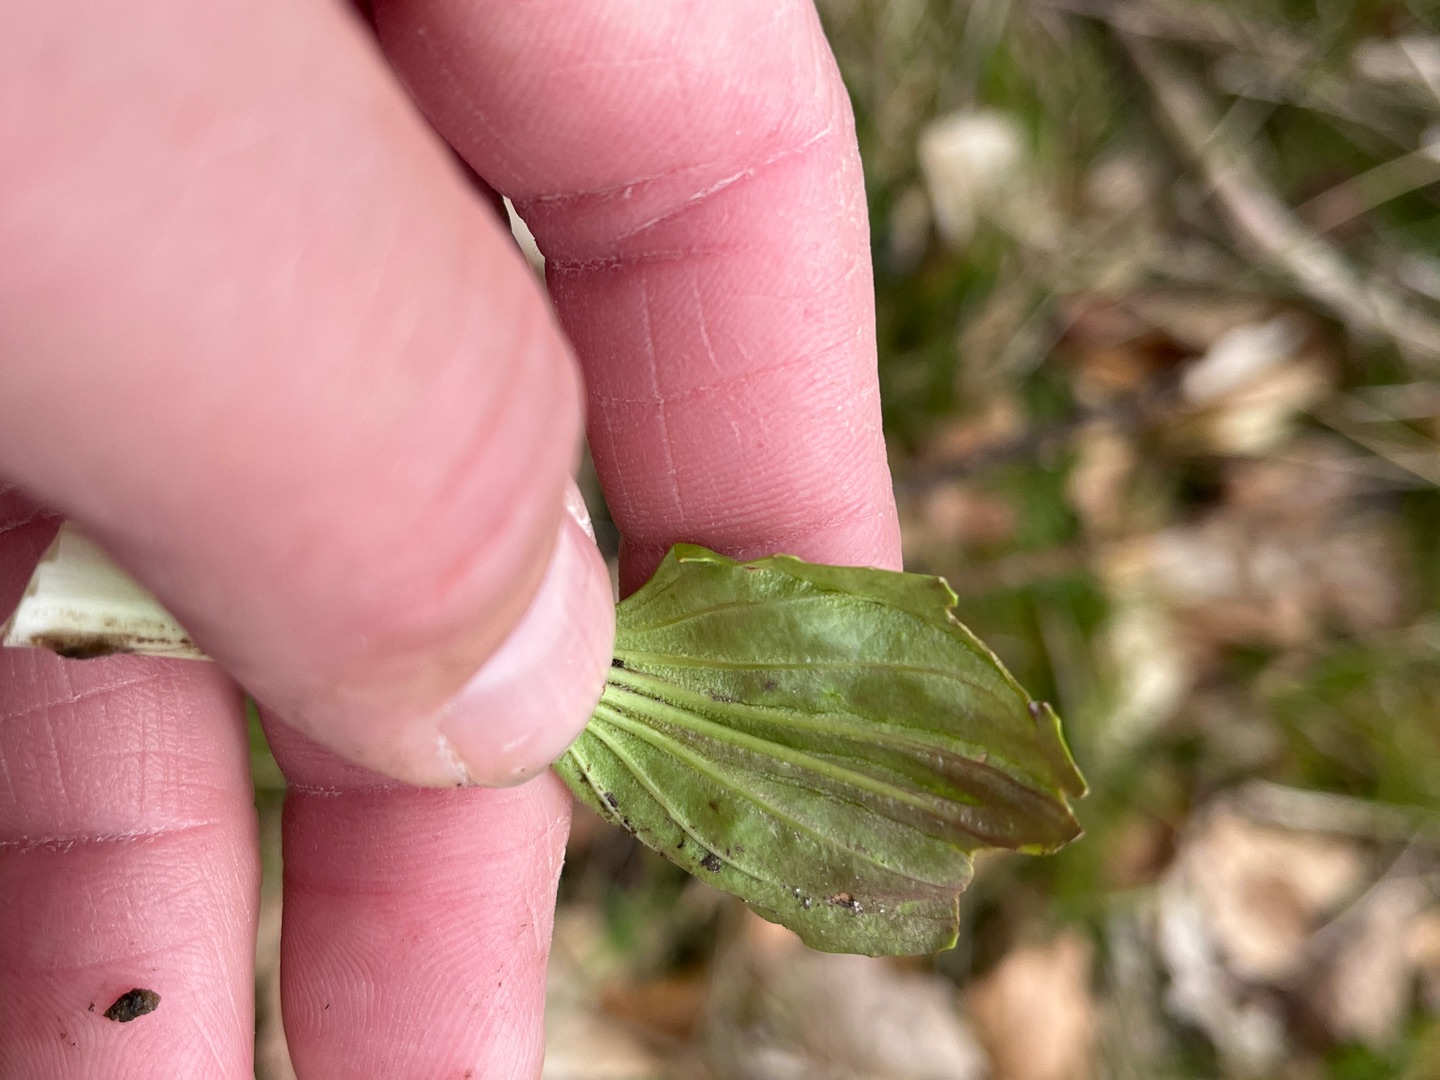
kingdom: Plantae
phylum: Tracheophyta
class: Magnoliopsida
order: Lamiales
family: Plantaginaceae
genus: Plantago
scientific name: Plantago major
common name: Glat vejbred
